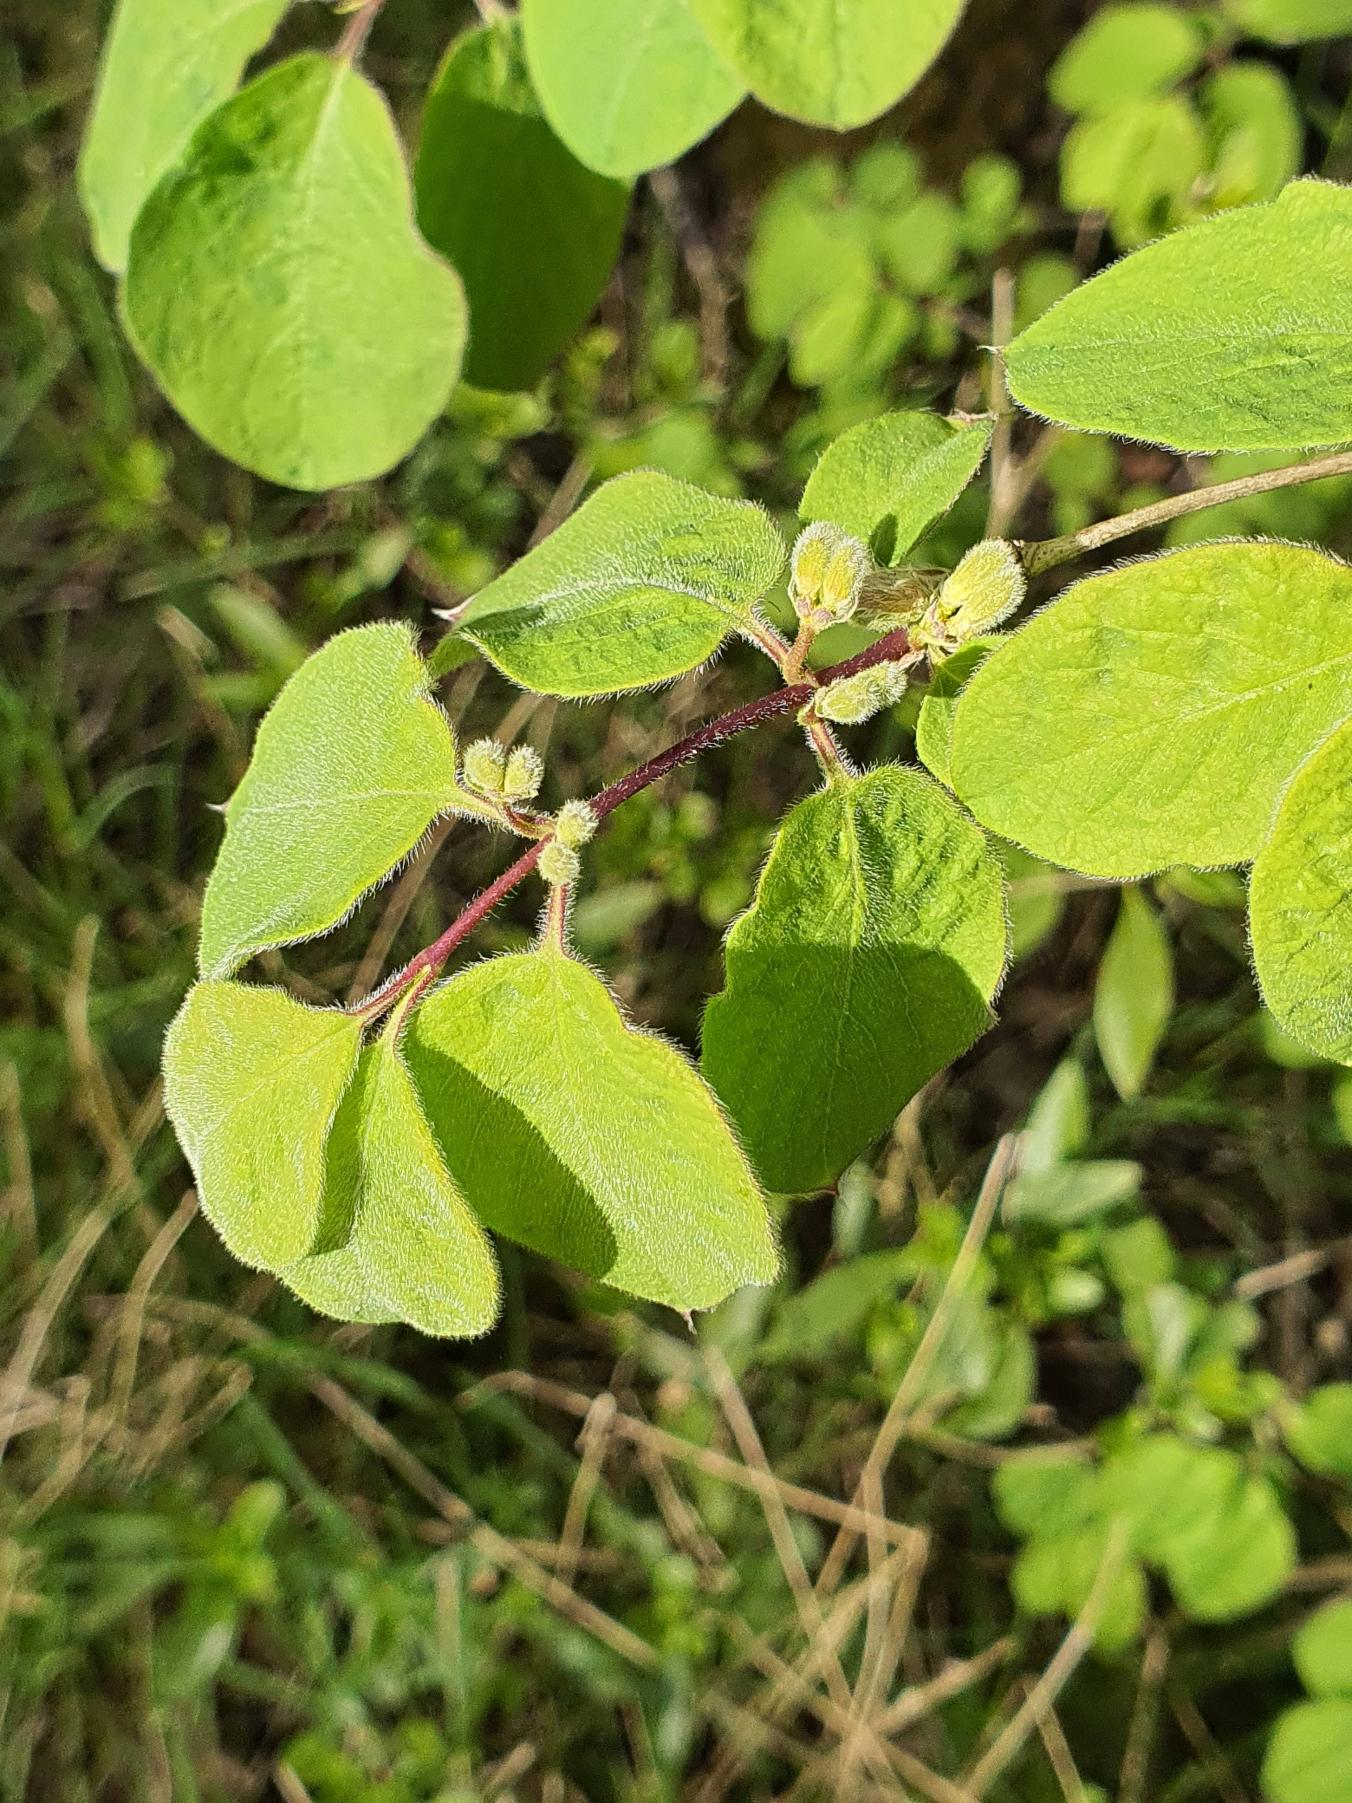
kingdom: Plantae
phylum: Tracheophyta
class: Magnoliopsida
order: Dipsacales
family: Caprifoliaceae
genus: Lonicera
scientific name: Lonicera xylosteum
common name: Dunet gedeblad
